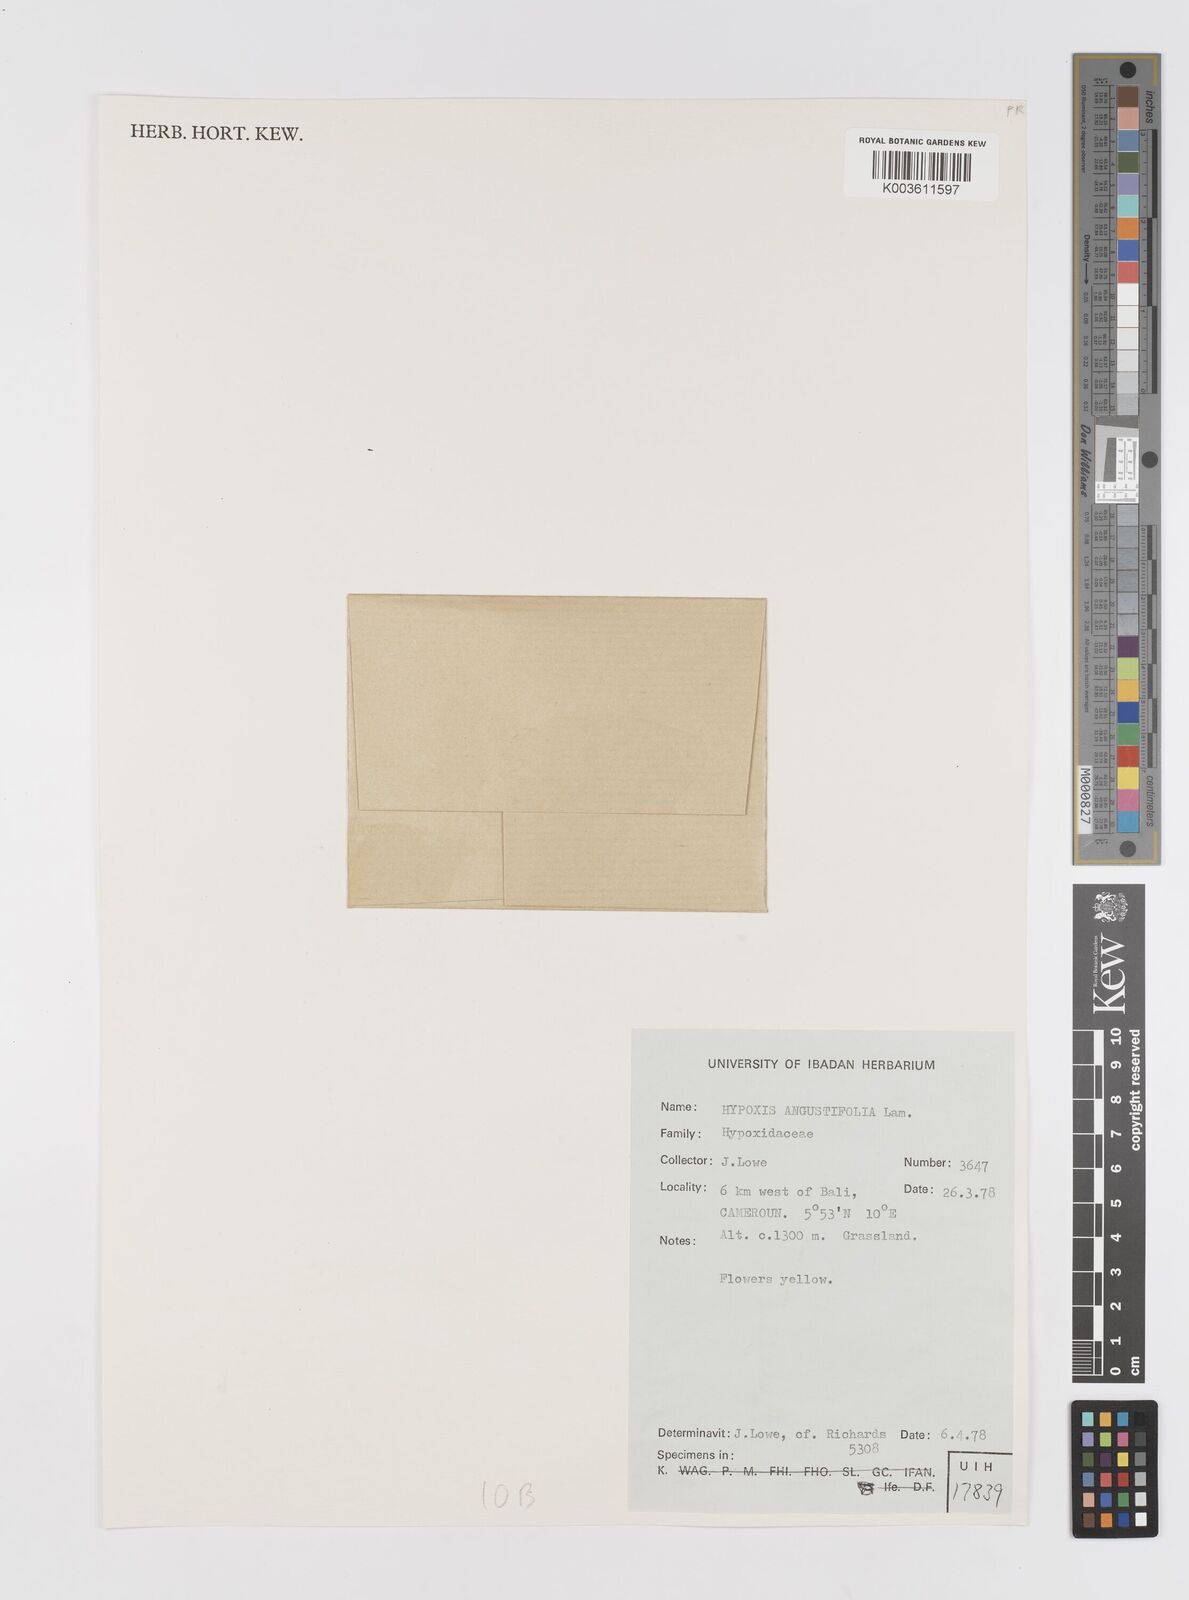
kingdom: Plantae
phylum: Tracheophyta
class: Liliopsida
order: Asparagales
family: Hypoxidaceae
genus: Hypoxis
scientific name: Hypoxis angustifolia
